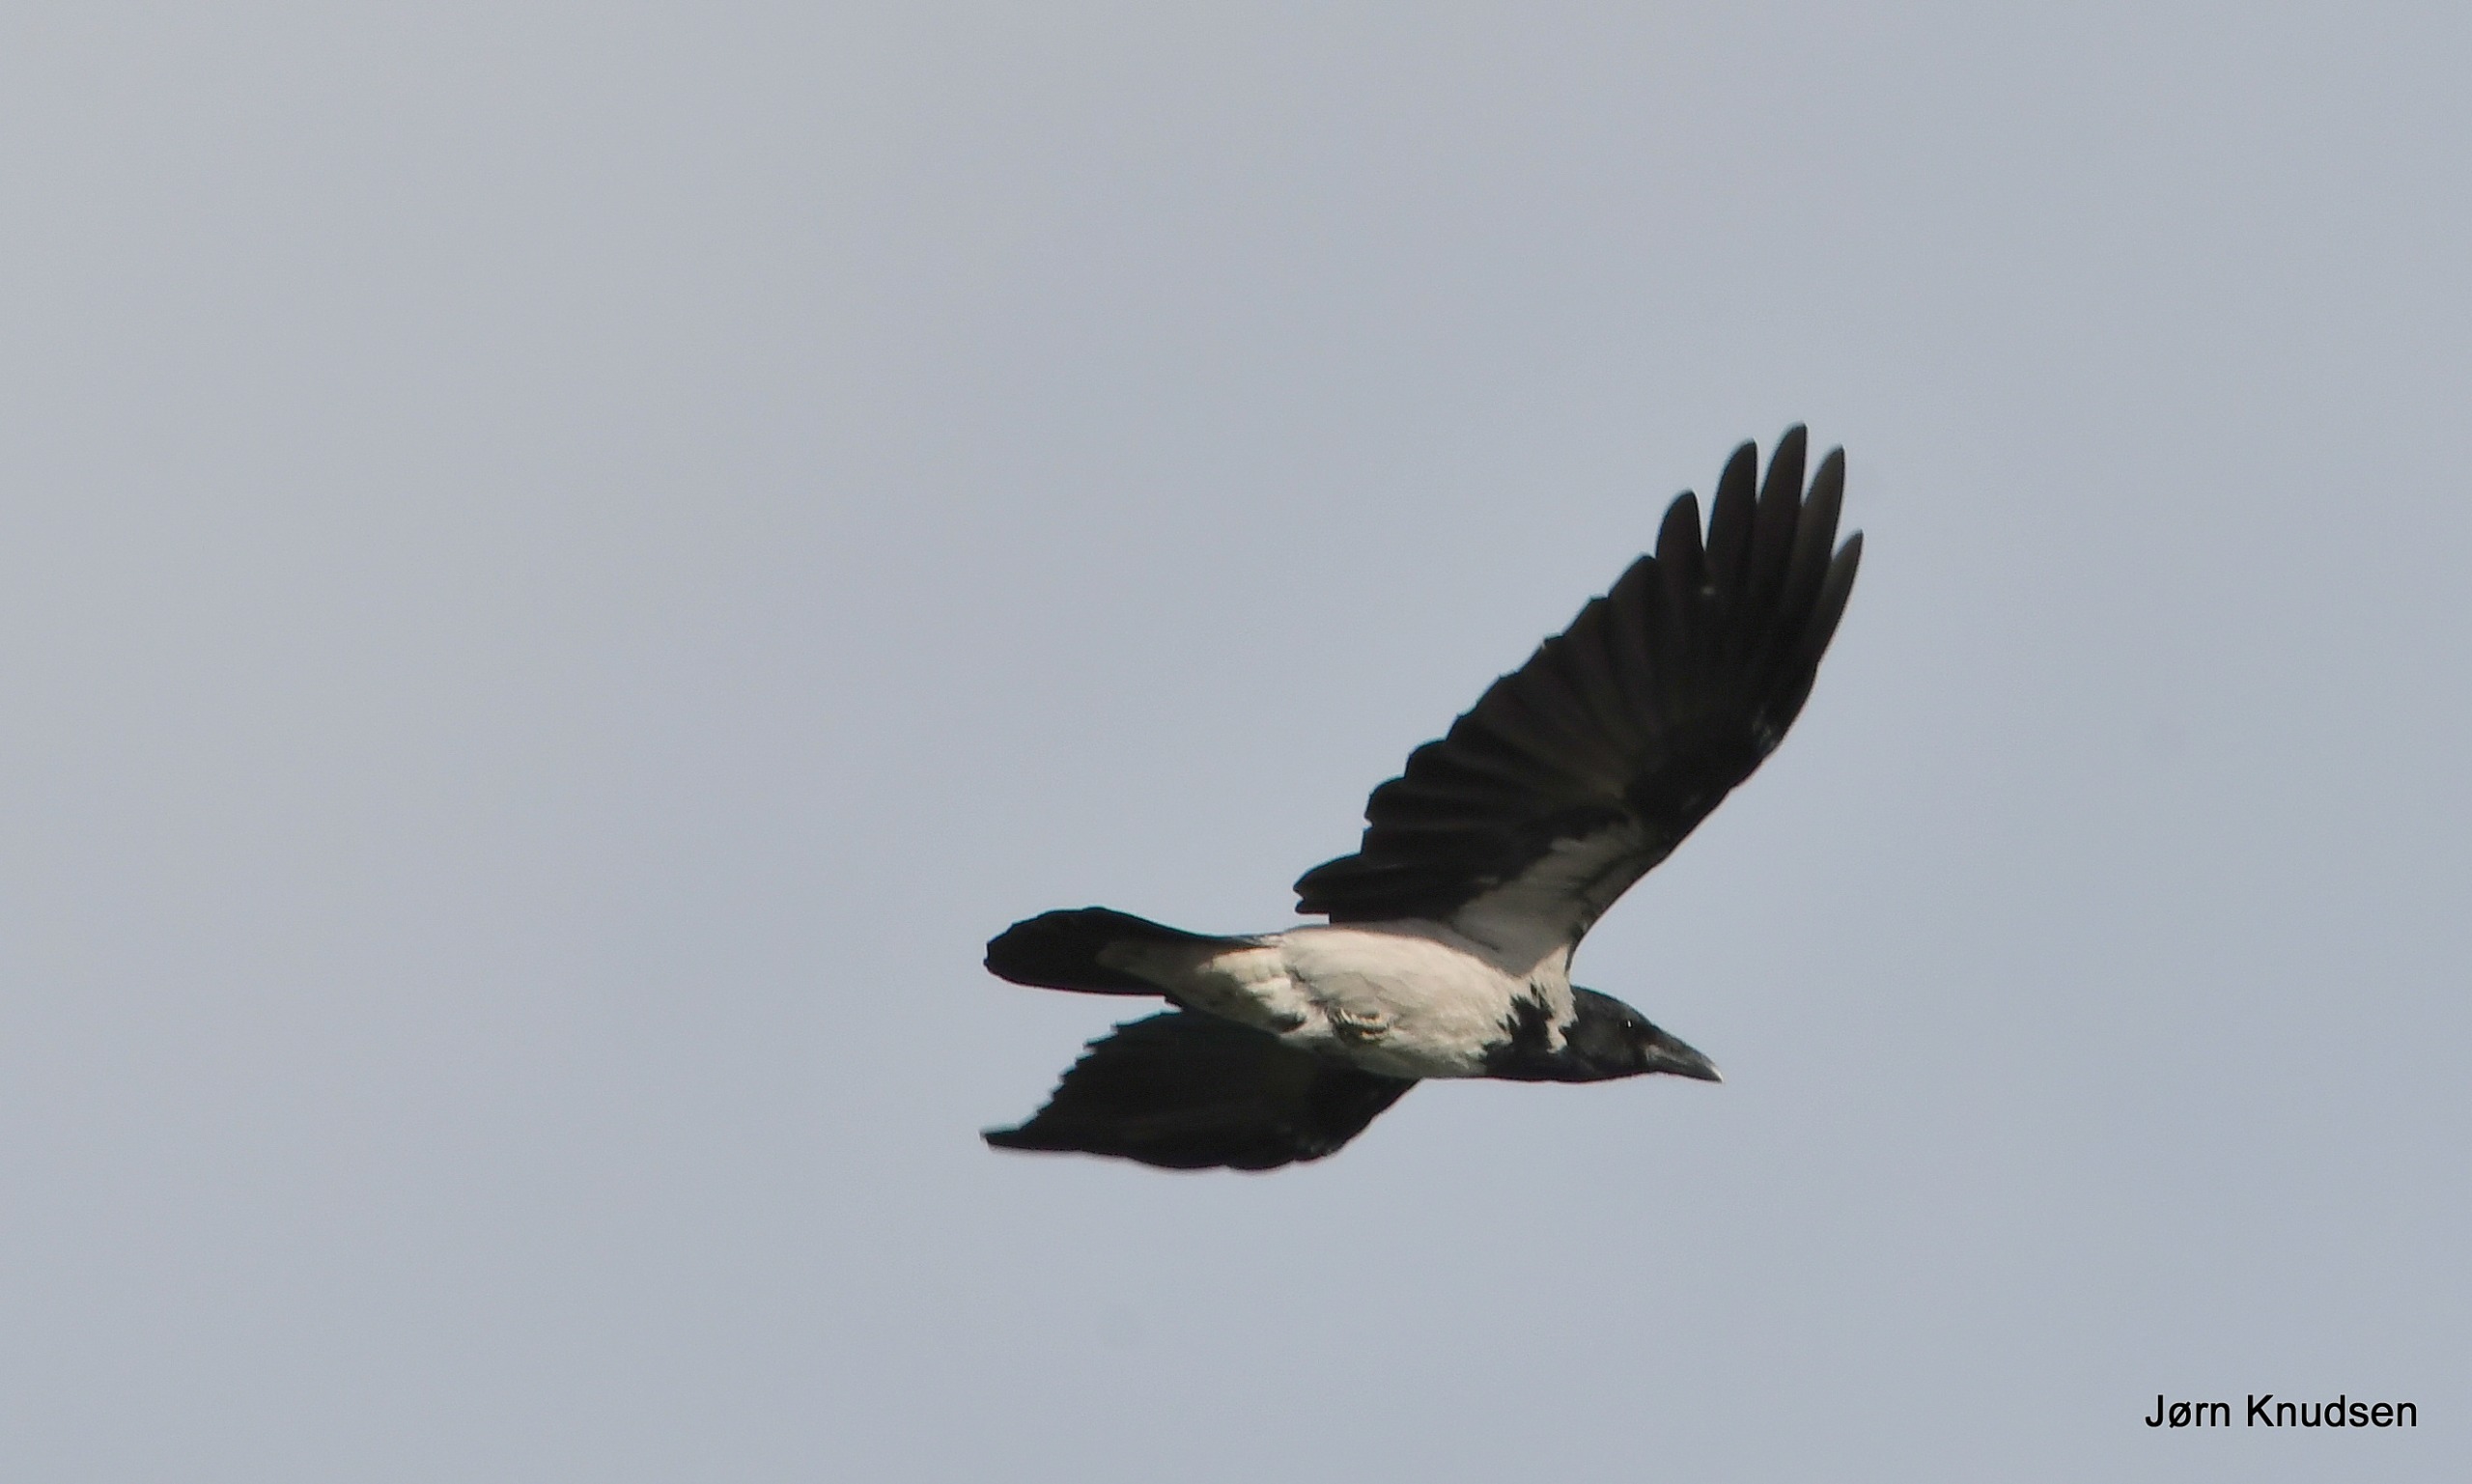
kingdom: Animalia
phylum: Chordata
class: Aves
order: Passeriformes
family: Corvidae
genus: Corvus
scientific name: Corvus cornix
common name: Gråkrage
